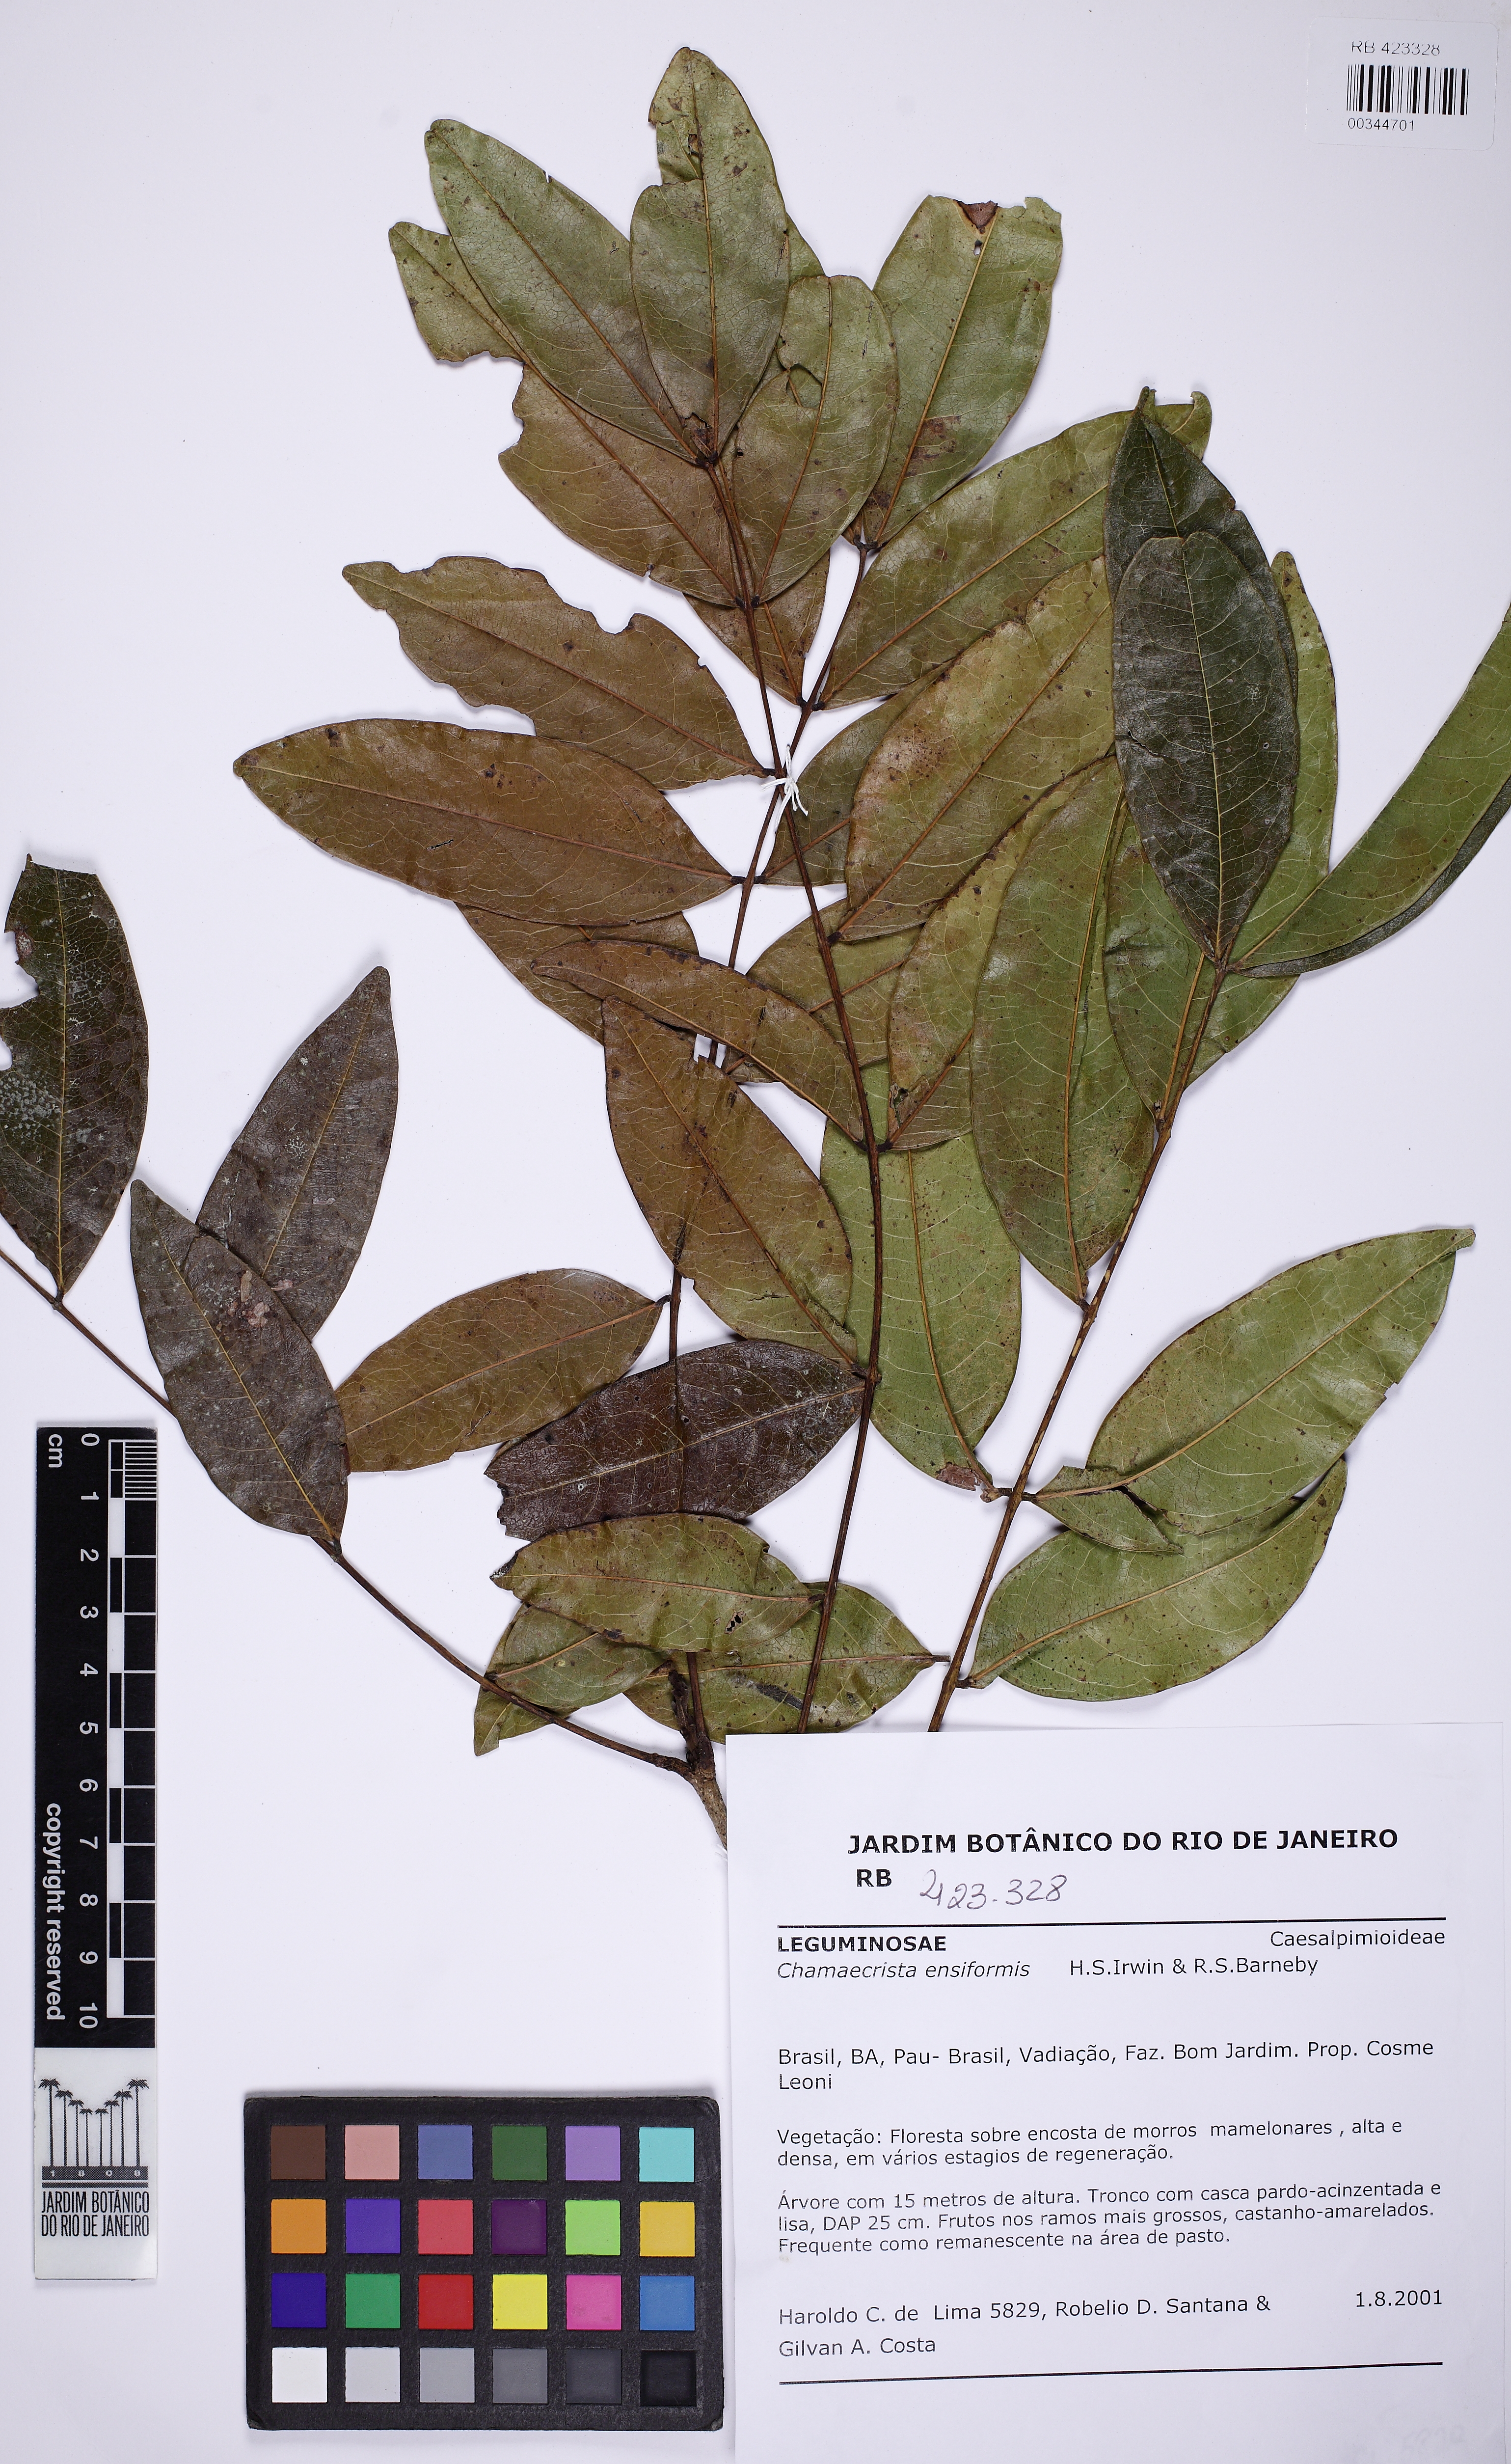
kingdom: Plantae
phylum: Tracheophyta
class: Magnoliopsida
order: Fabales
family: Fabaceae
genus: Chamaecrista
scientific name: Chamaecrista ensiformis
